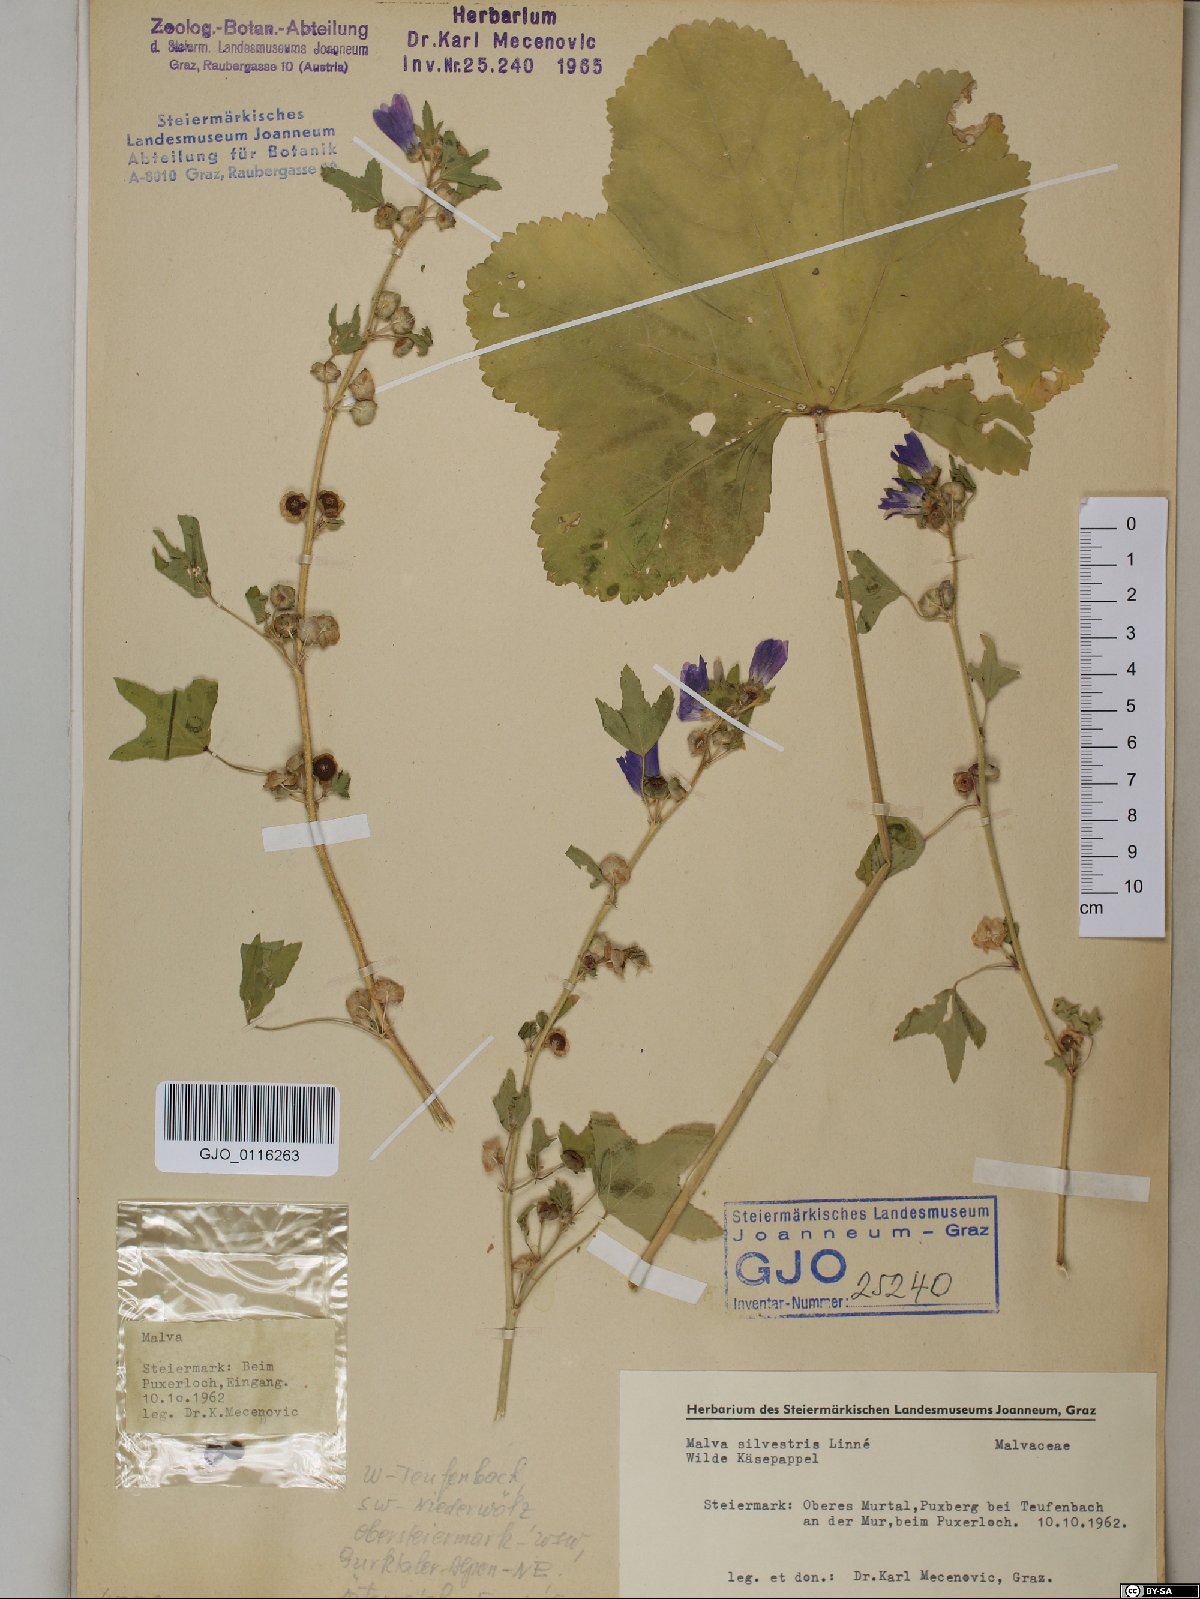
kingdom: Plantae
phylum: Tracheophyta
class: Magnoliopsida
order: Malvales
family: Malvaceae
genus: Malva
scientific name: Malva sylvestris
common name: Common mallow
